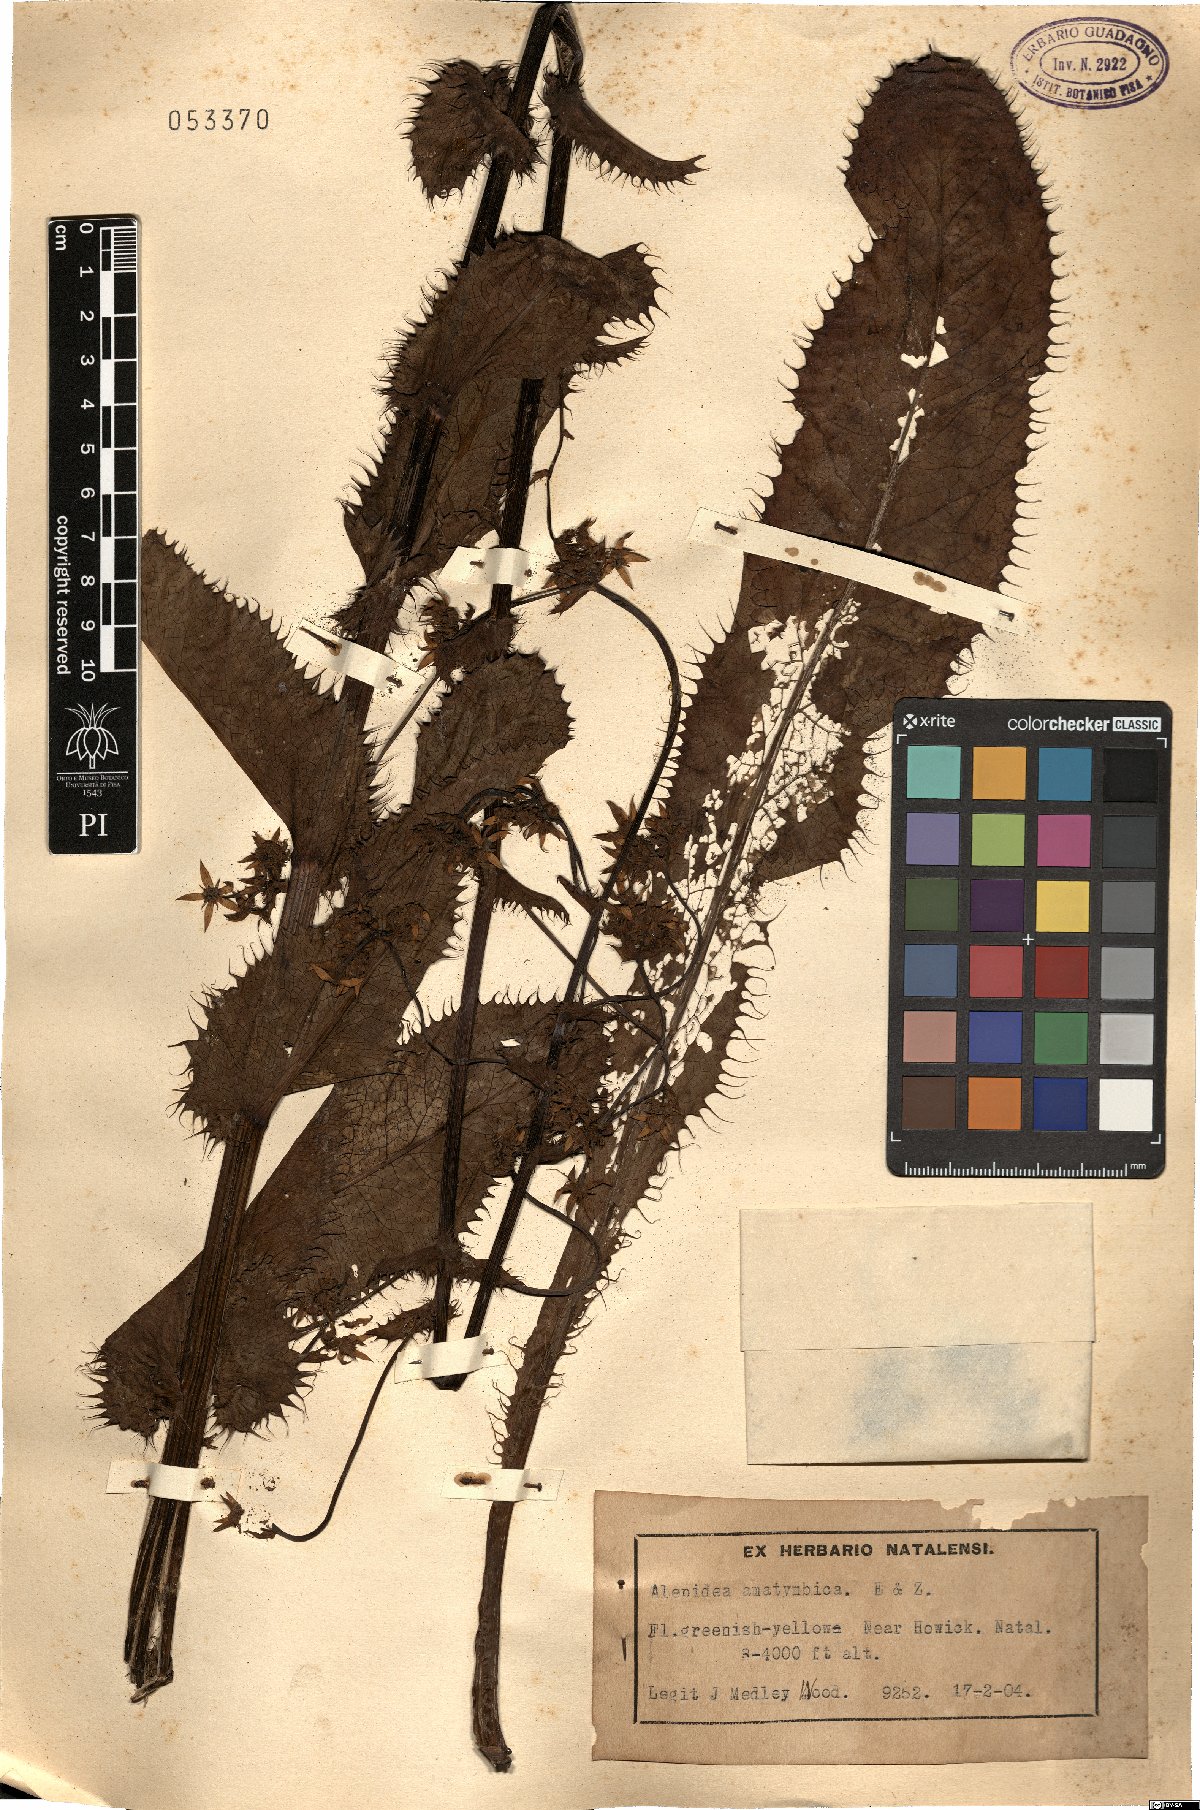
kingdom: Plantae
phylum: Tracheophyta
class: Magnoliopsida
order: Apiales
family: Apiaceae
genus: Alepidea
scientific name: Alepidea amatymbica
